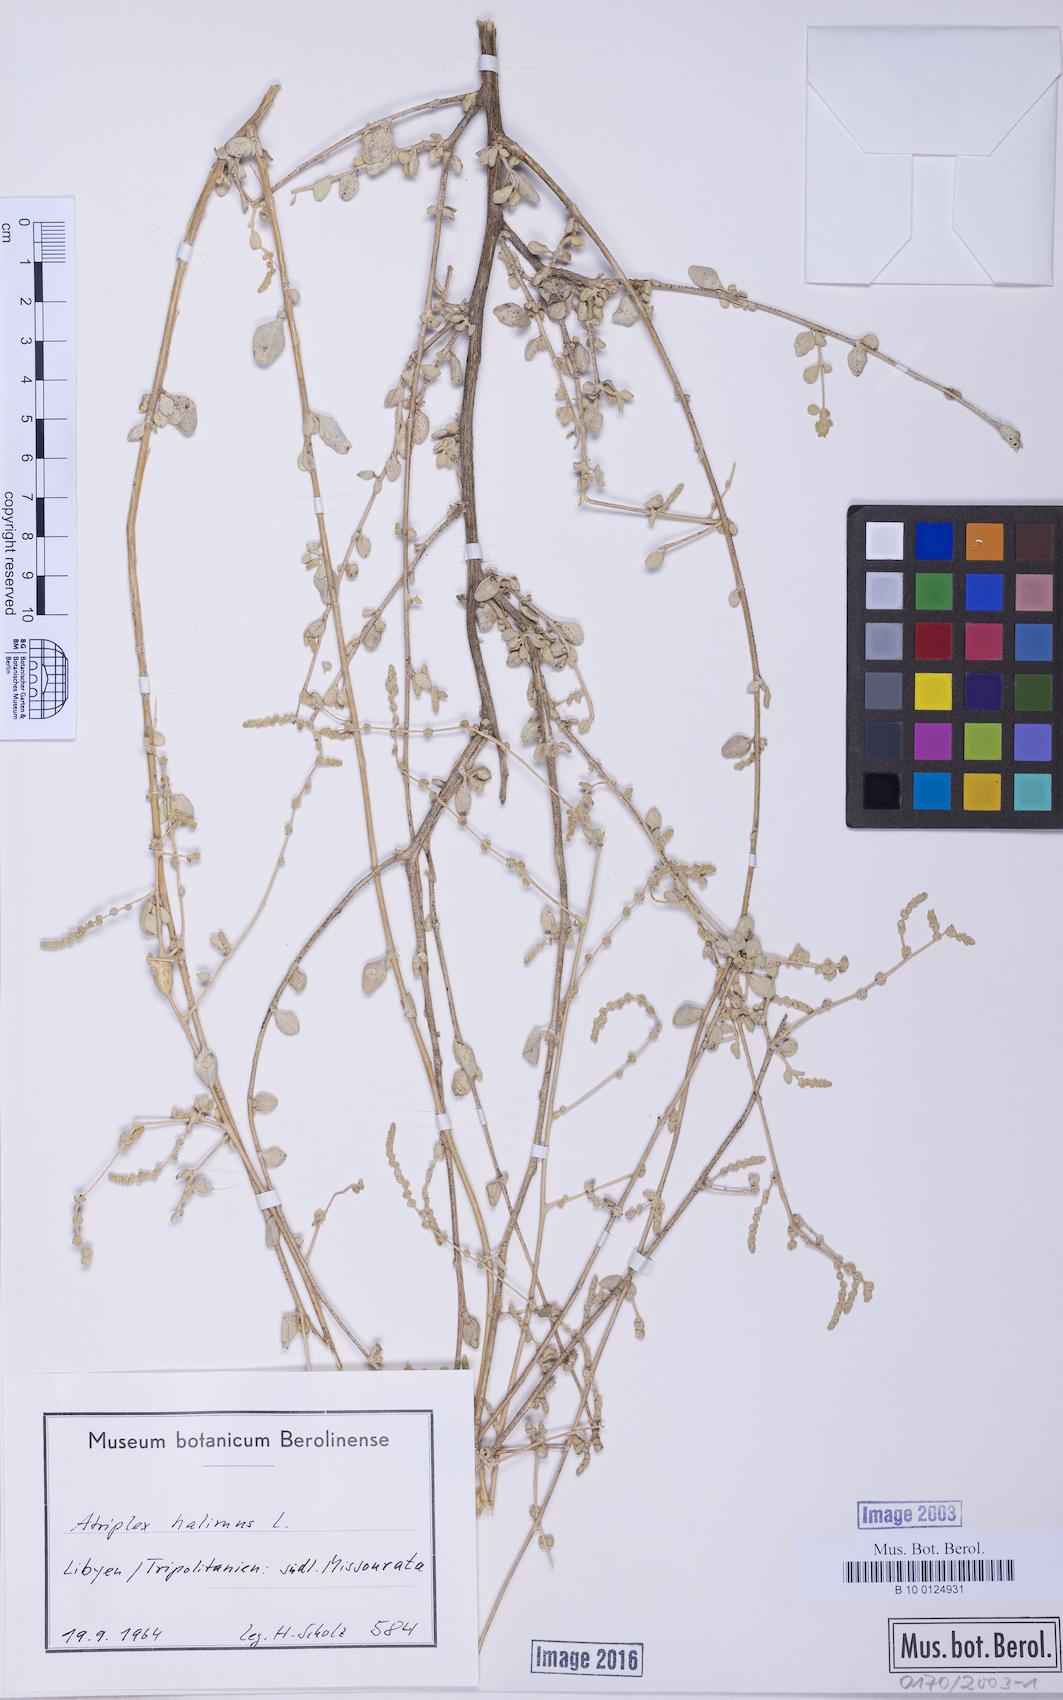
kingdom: Plantae
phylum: Tracheophyta
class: Magnoliopsida
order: Caryophyllales
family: Amaranthaceae
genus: Atriplex
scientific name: Atriplex halimus
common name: Shrubby orache
